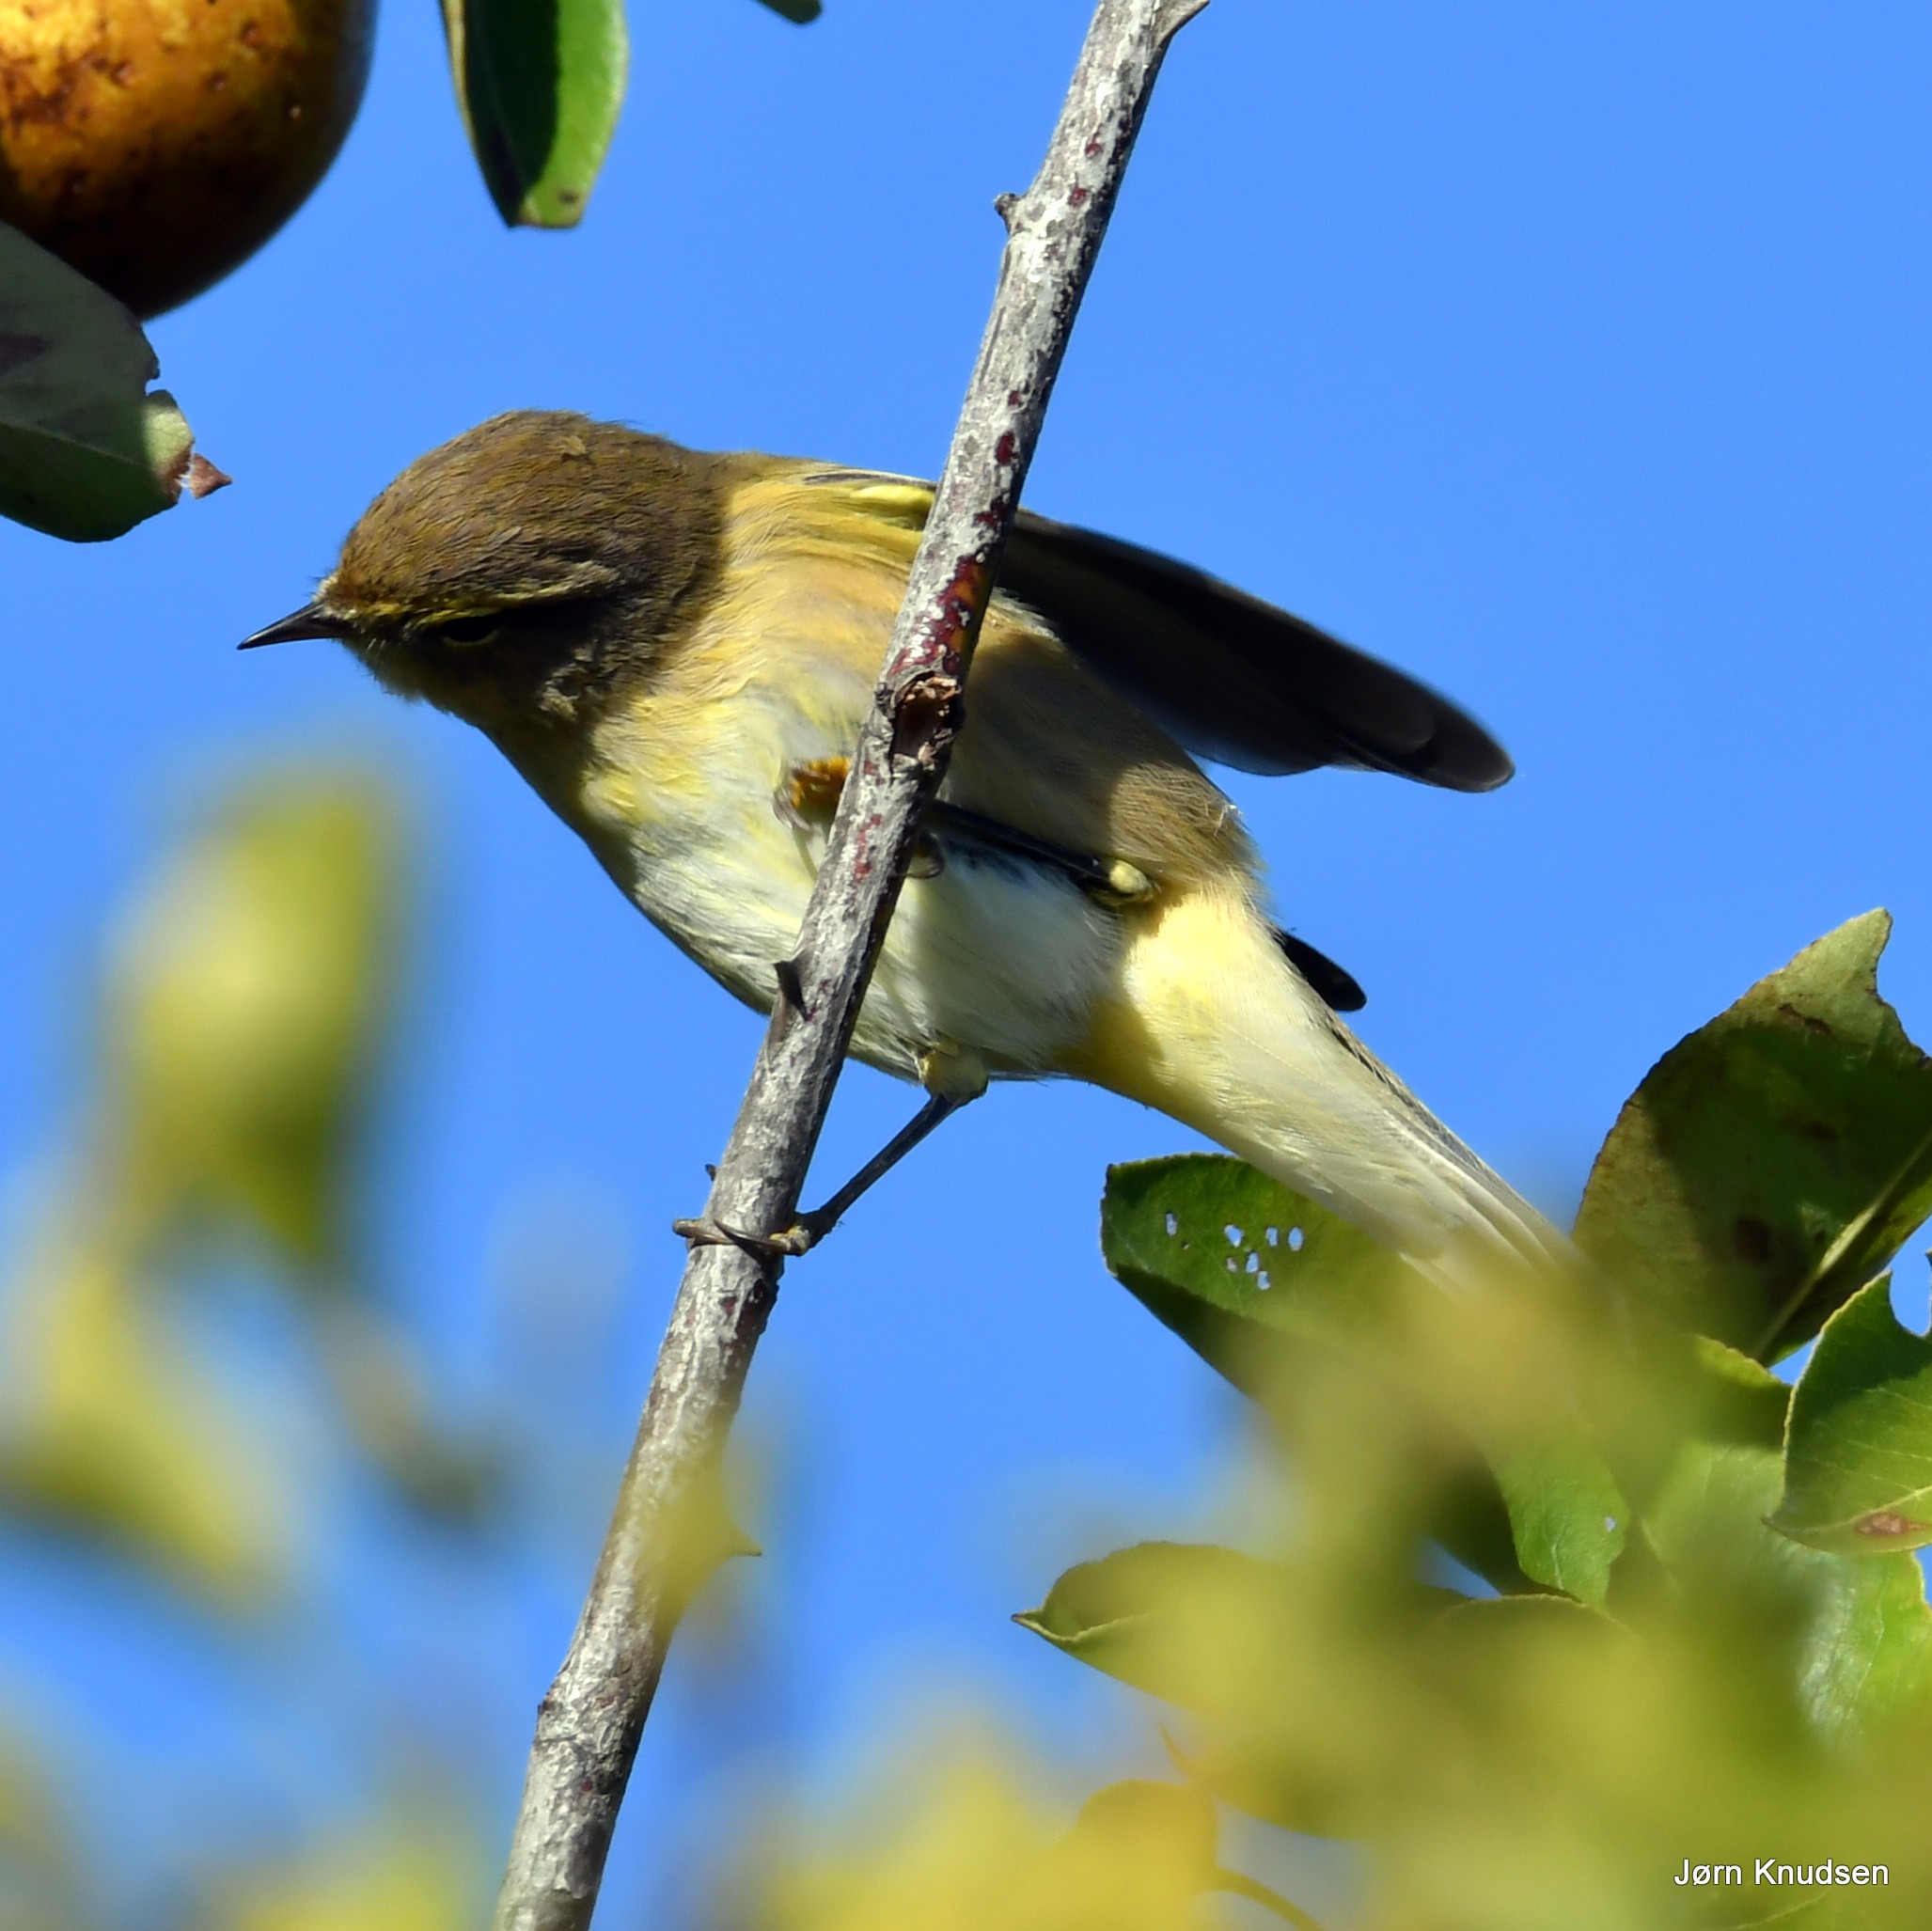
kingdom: Animalia
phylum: Chordata
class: Aves
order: Passeriformes
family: Phylloscopidae
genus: Phylloscopus
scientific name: Phylloscopus collybita
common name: Gransanger
